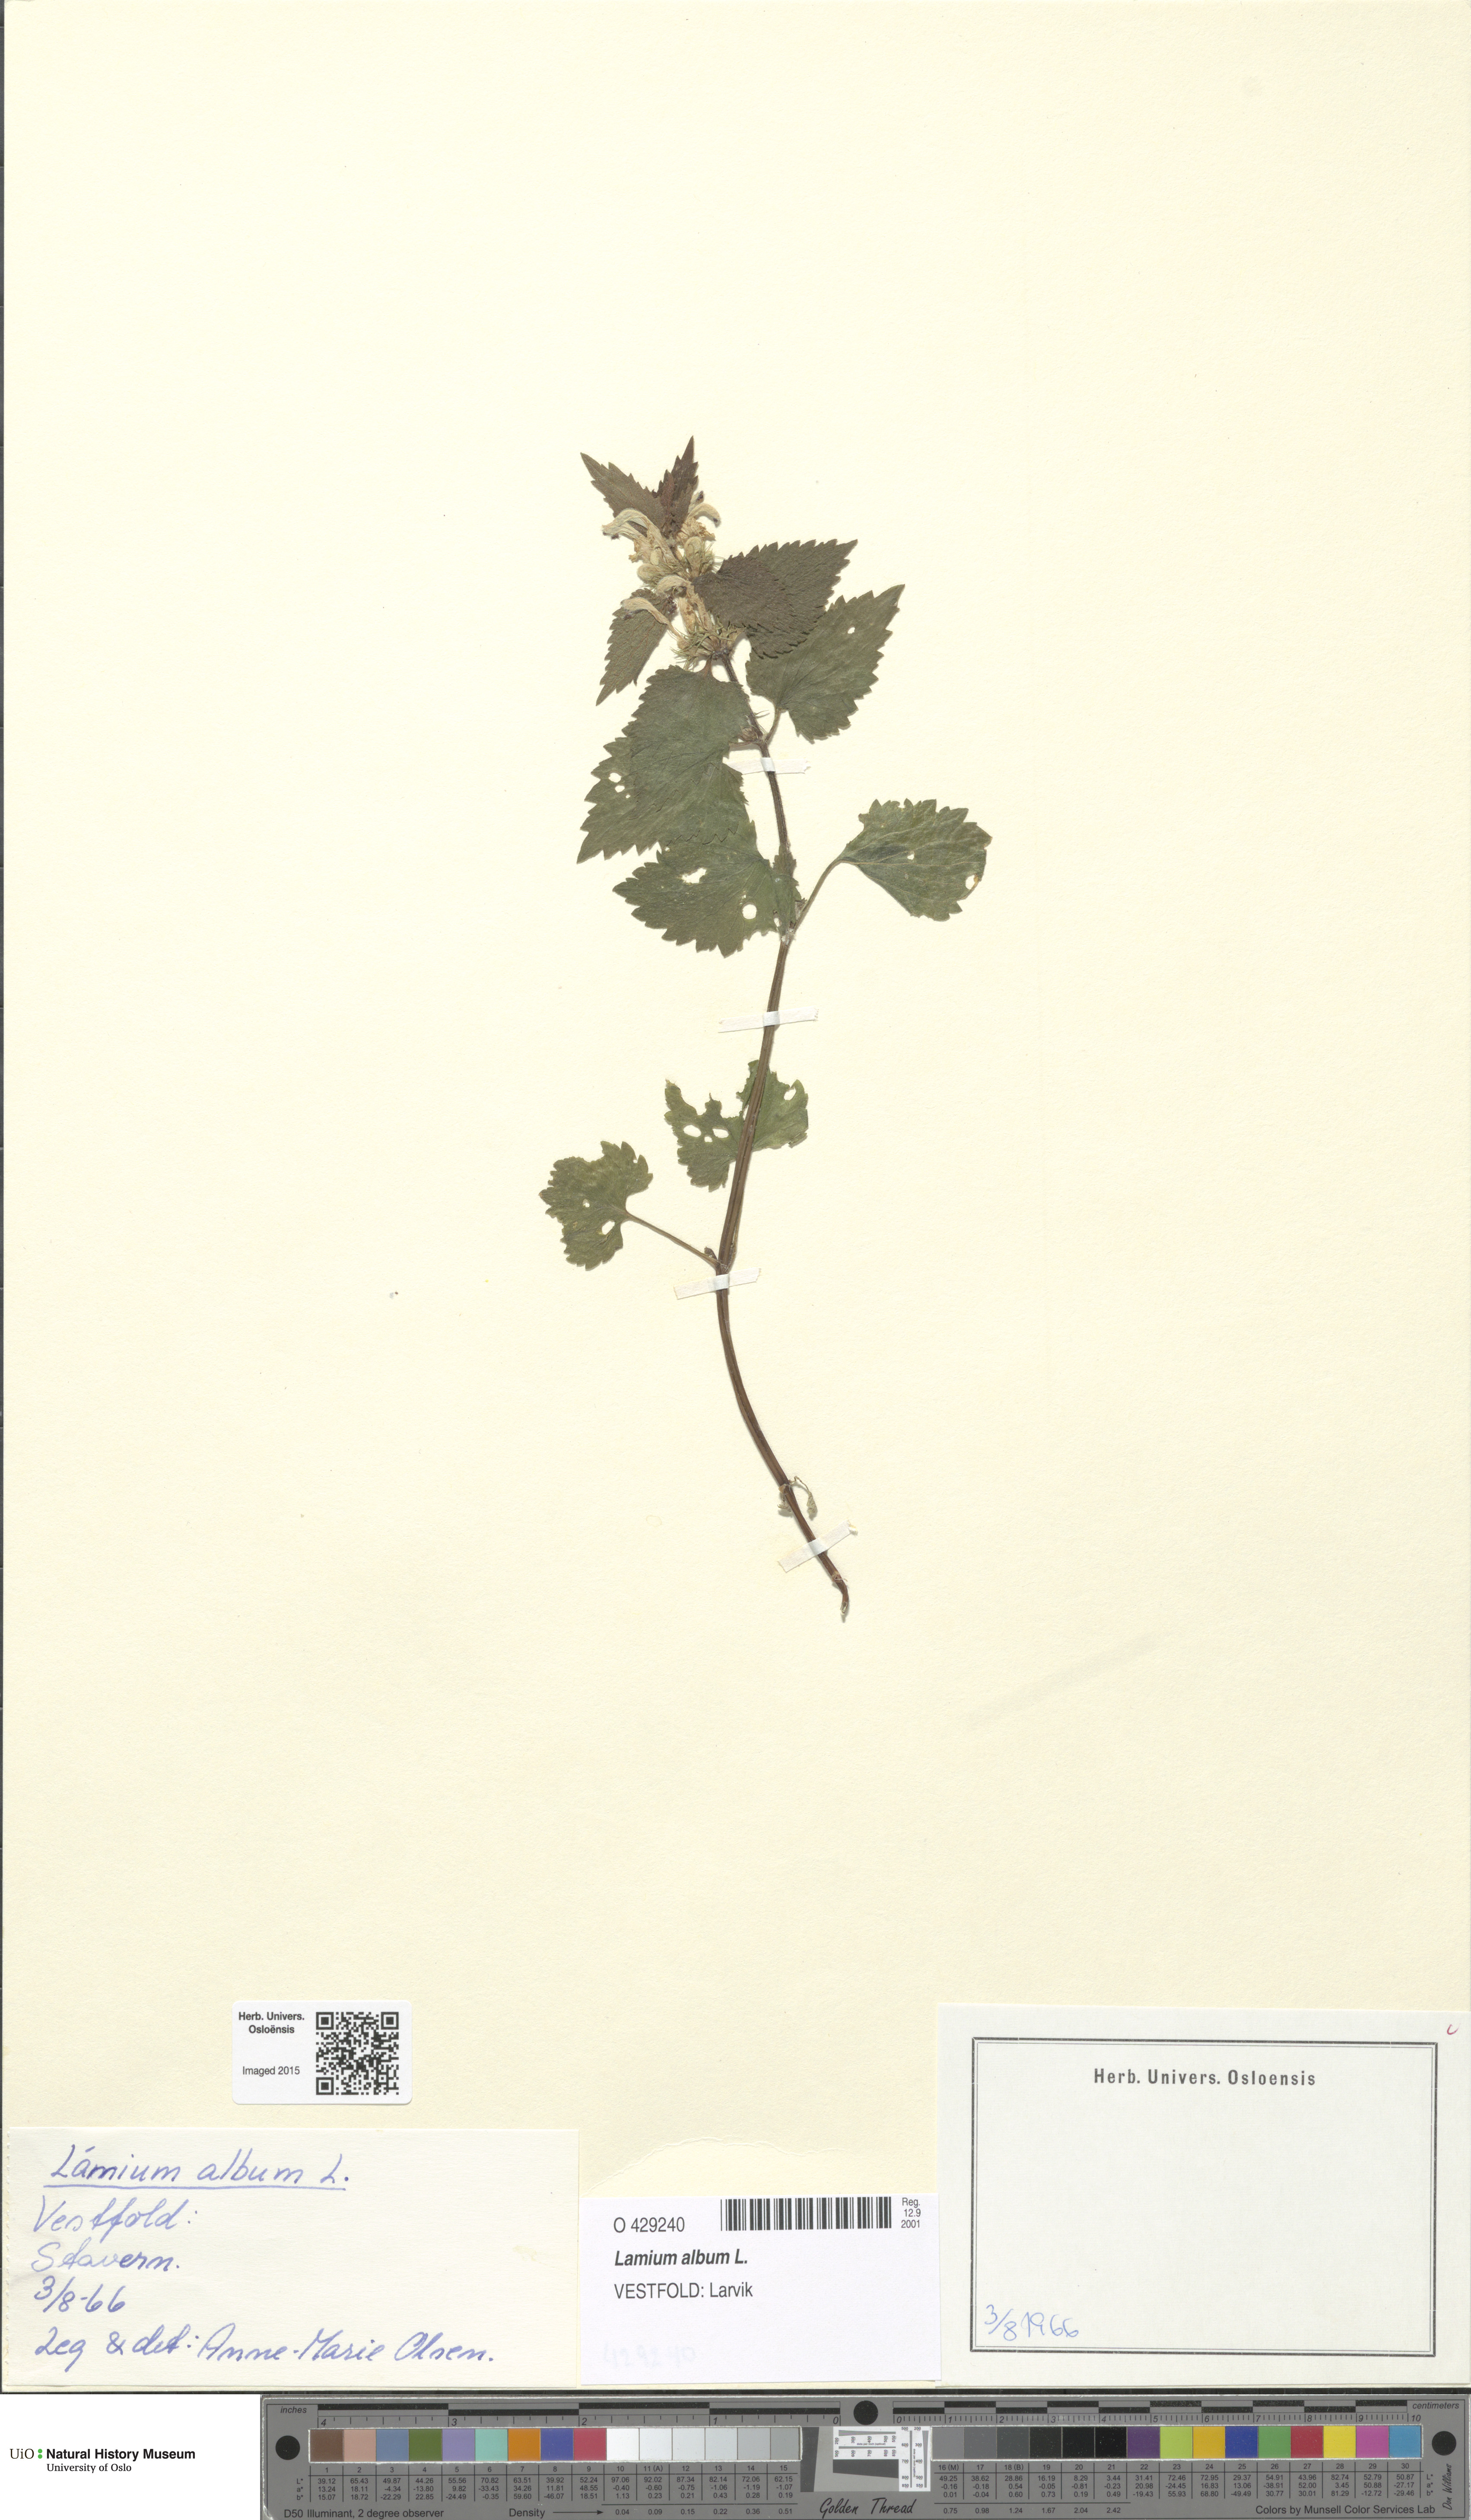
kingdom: Plantae
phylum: Tracheophyta
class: Magnoliopsida
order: Lamiales
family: Lamiaceae
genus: Lamium
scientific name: Lamium album
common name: White dead-nettle
